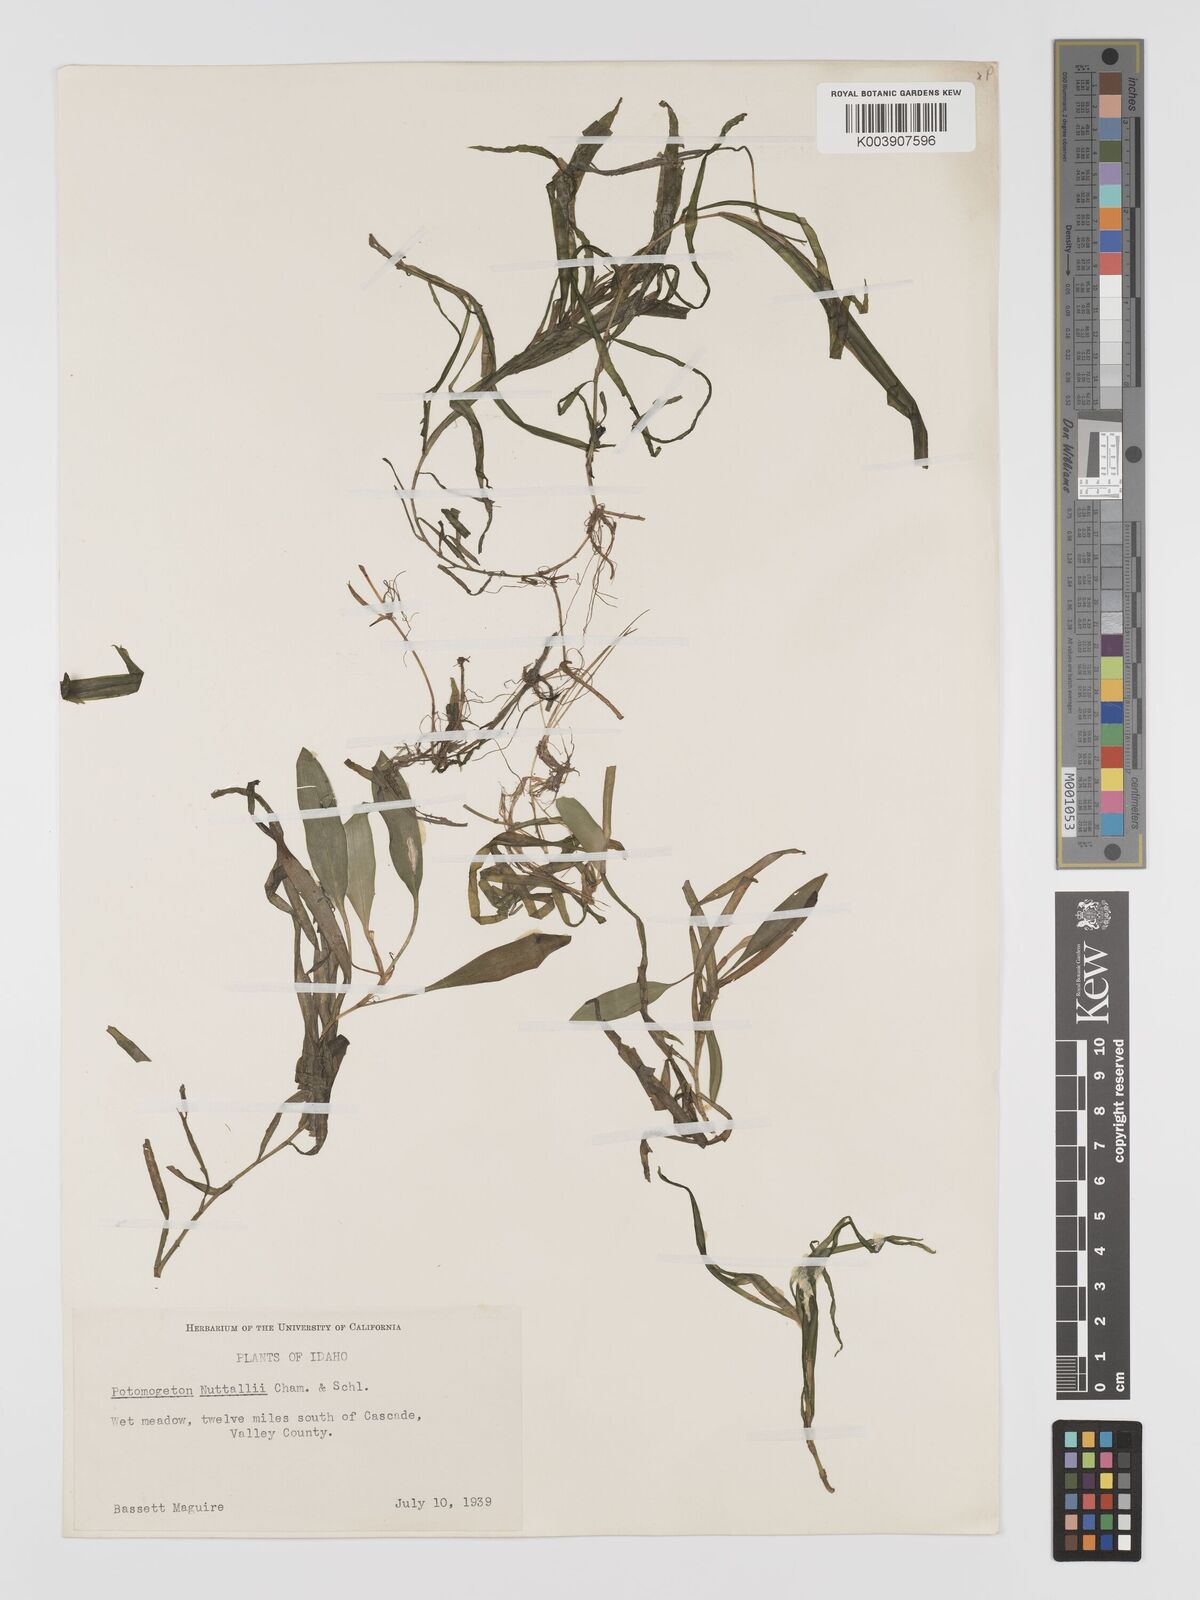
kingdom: Plantae
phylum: Tracheophyta
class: Liliopsida
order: Alismatales
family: Potamogetonaceae
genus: Potamogeton
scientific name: Potamogeton epihydrus
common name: American pondweed
